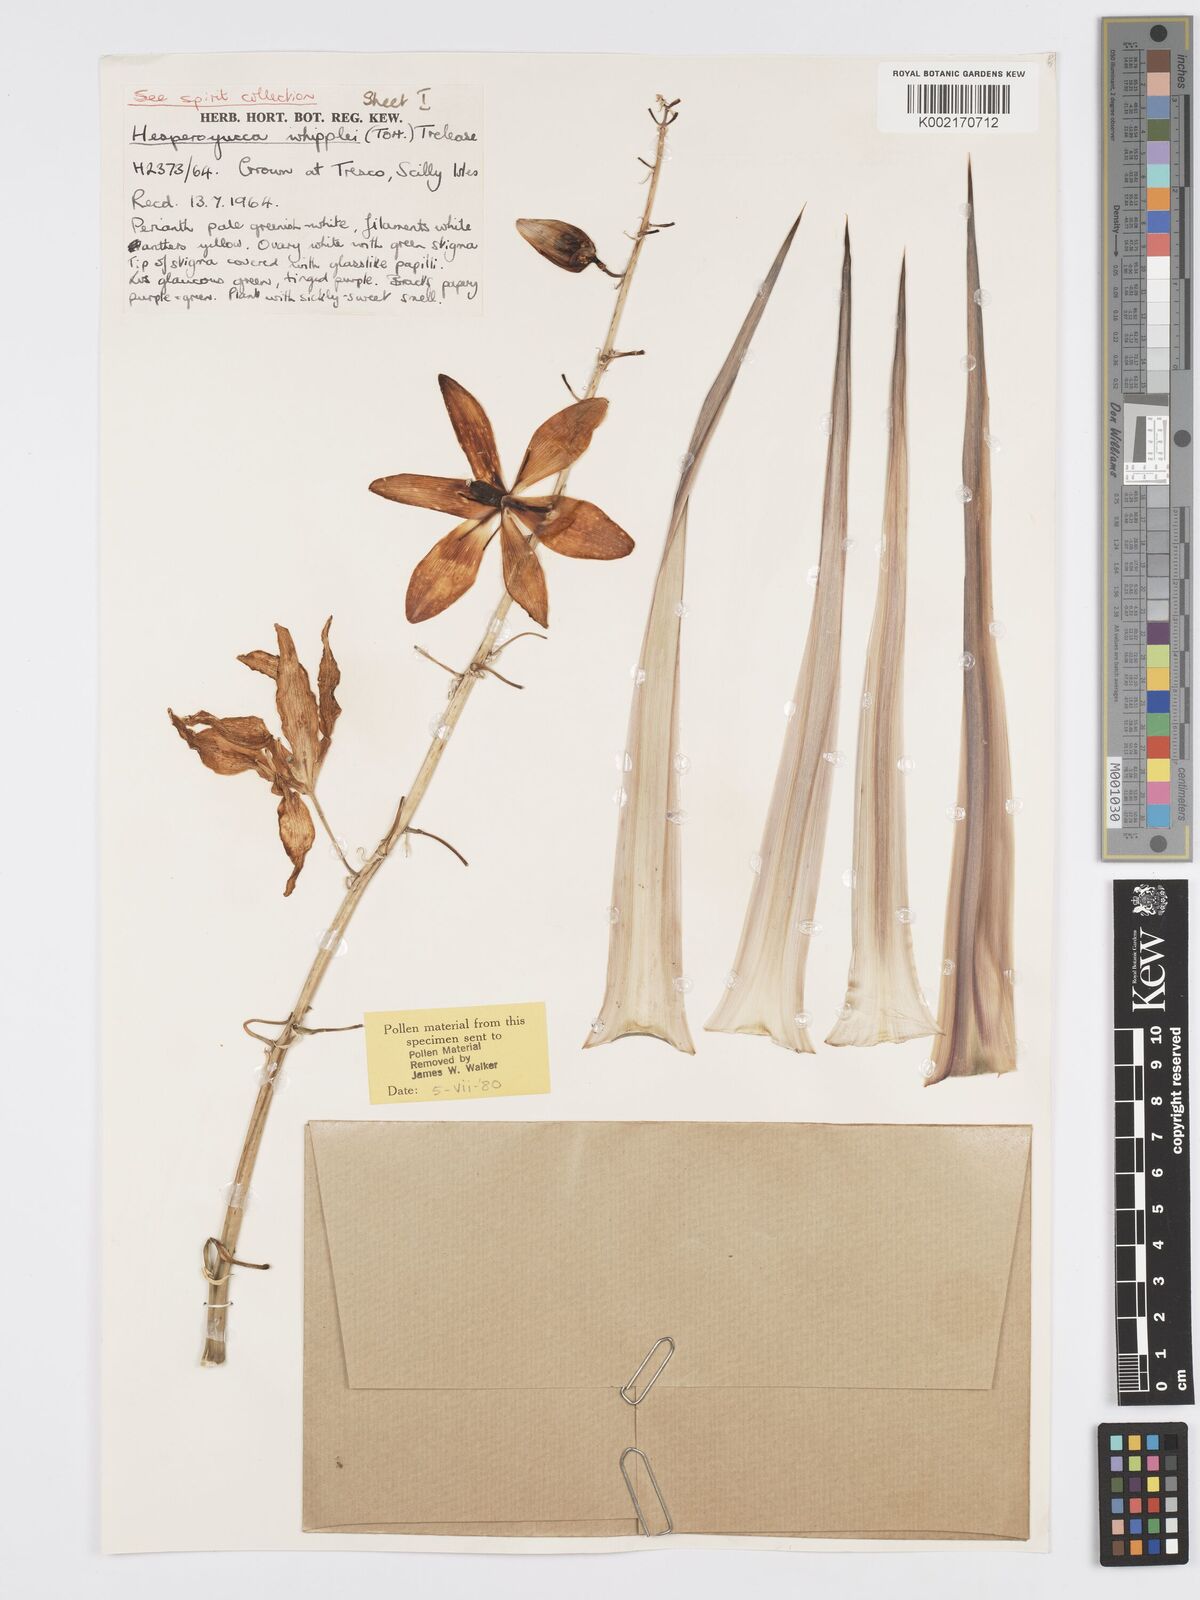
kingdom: Plantae
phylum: Tracheophyta
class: Liliopsida
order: Asparagales
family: Asparagaceae
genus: Hesperoyucca
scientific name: Hesperoyucca whipplei
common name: Our lord's-candle
